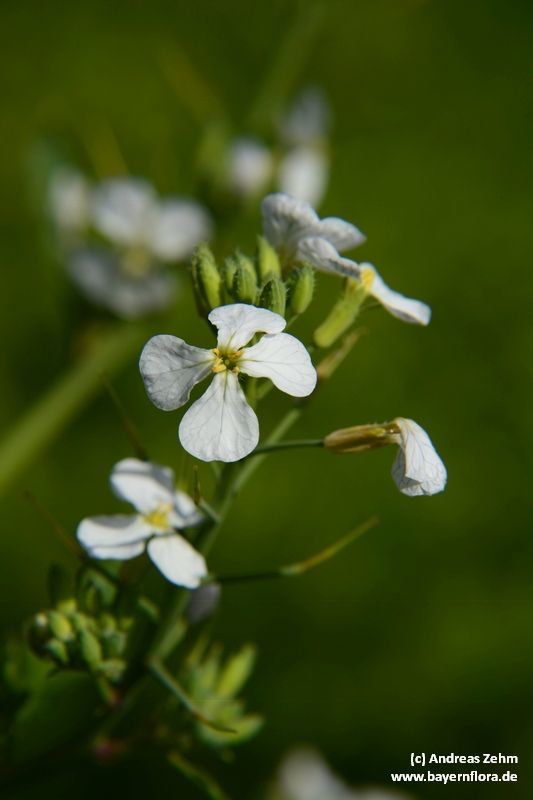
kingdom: Plantae
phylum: Tracheophyta
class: Magnoliopsida
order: Brassicales
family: Brassicaceae
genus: Raphanus
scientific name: Raphanus sativus
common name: Cultivated radish
